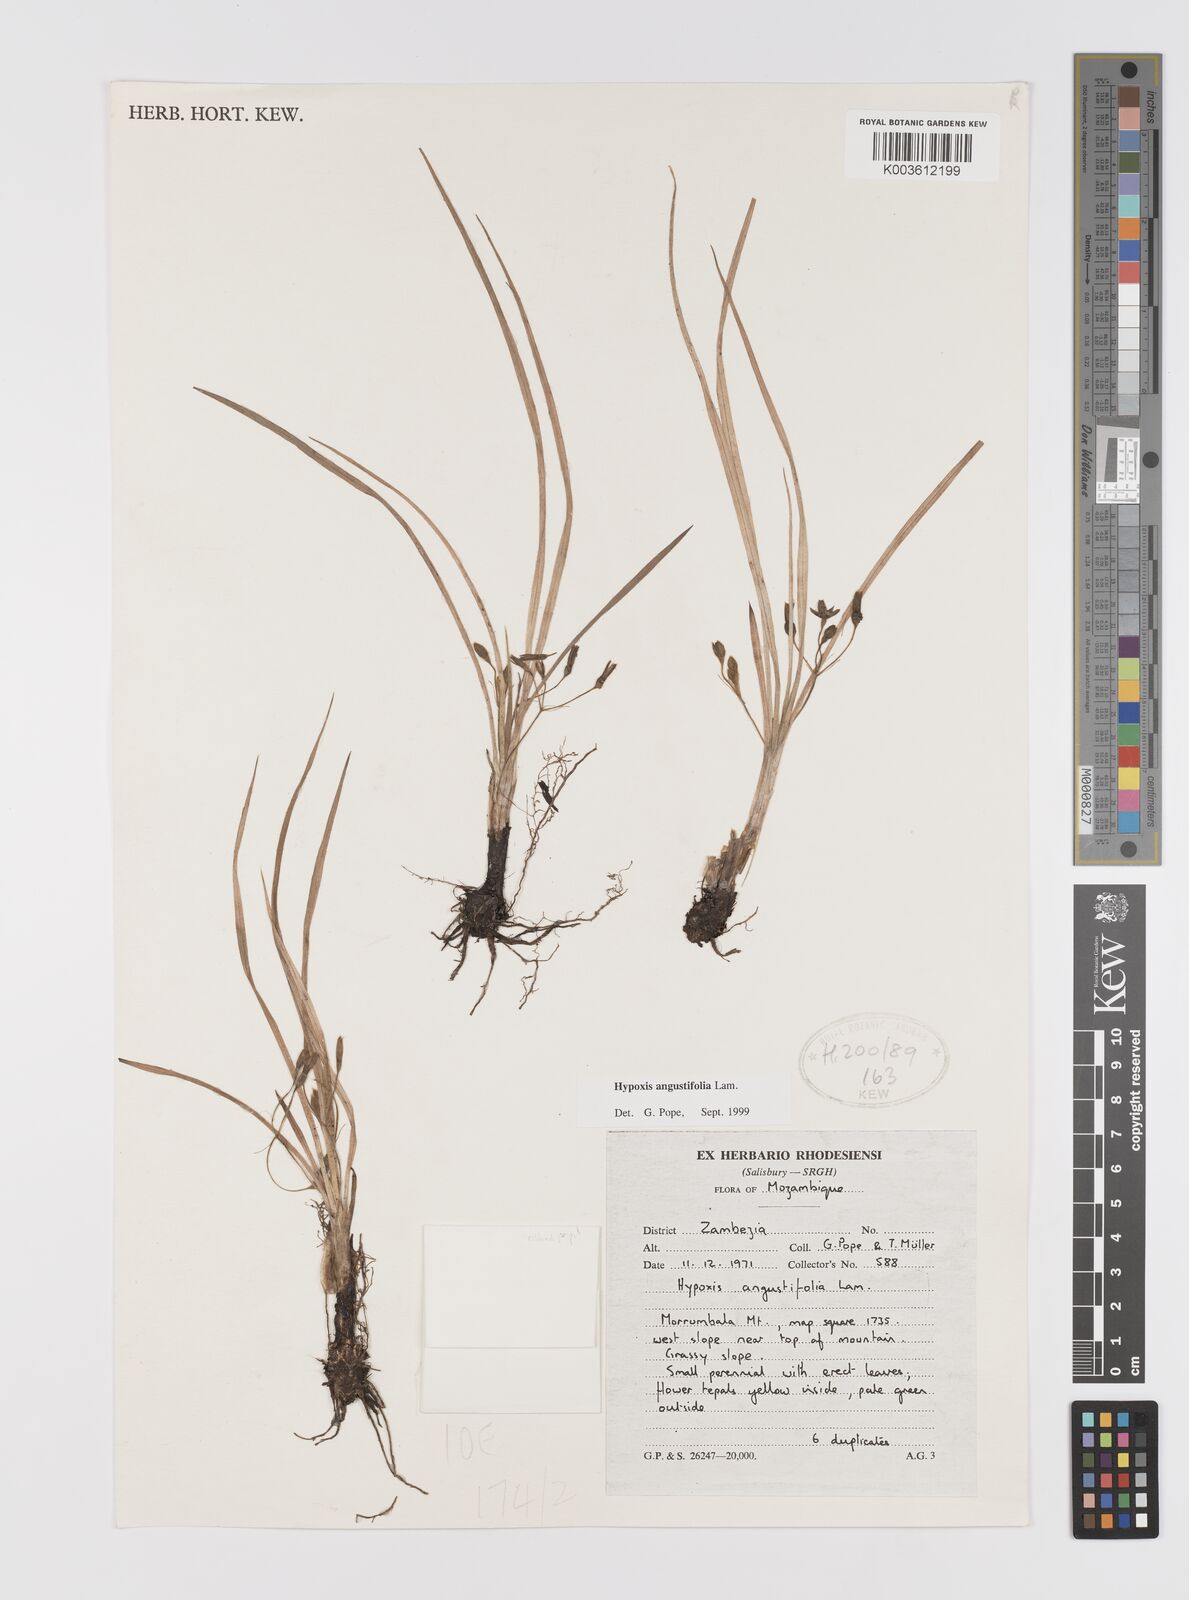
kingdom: Plantae
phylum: Tracheophyta
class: Liliopsida
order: Asparagales
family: Hypoxidaceae
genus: Hypoxis
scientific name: Hypoxis angustifolia
